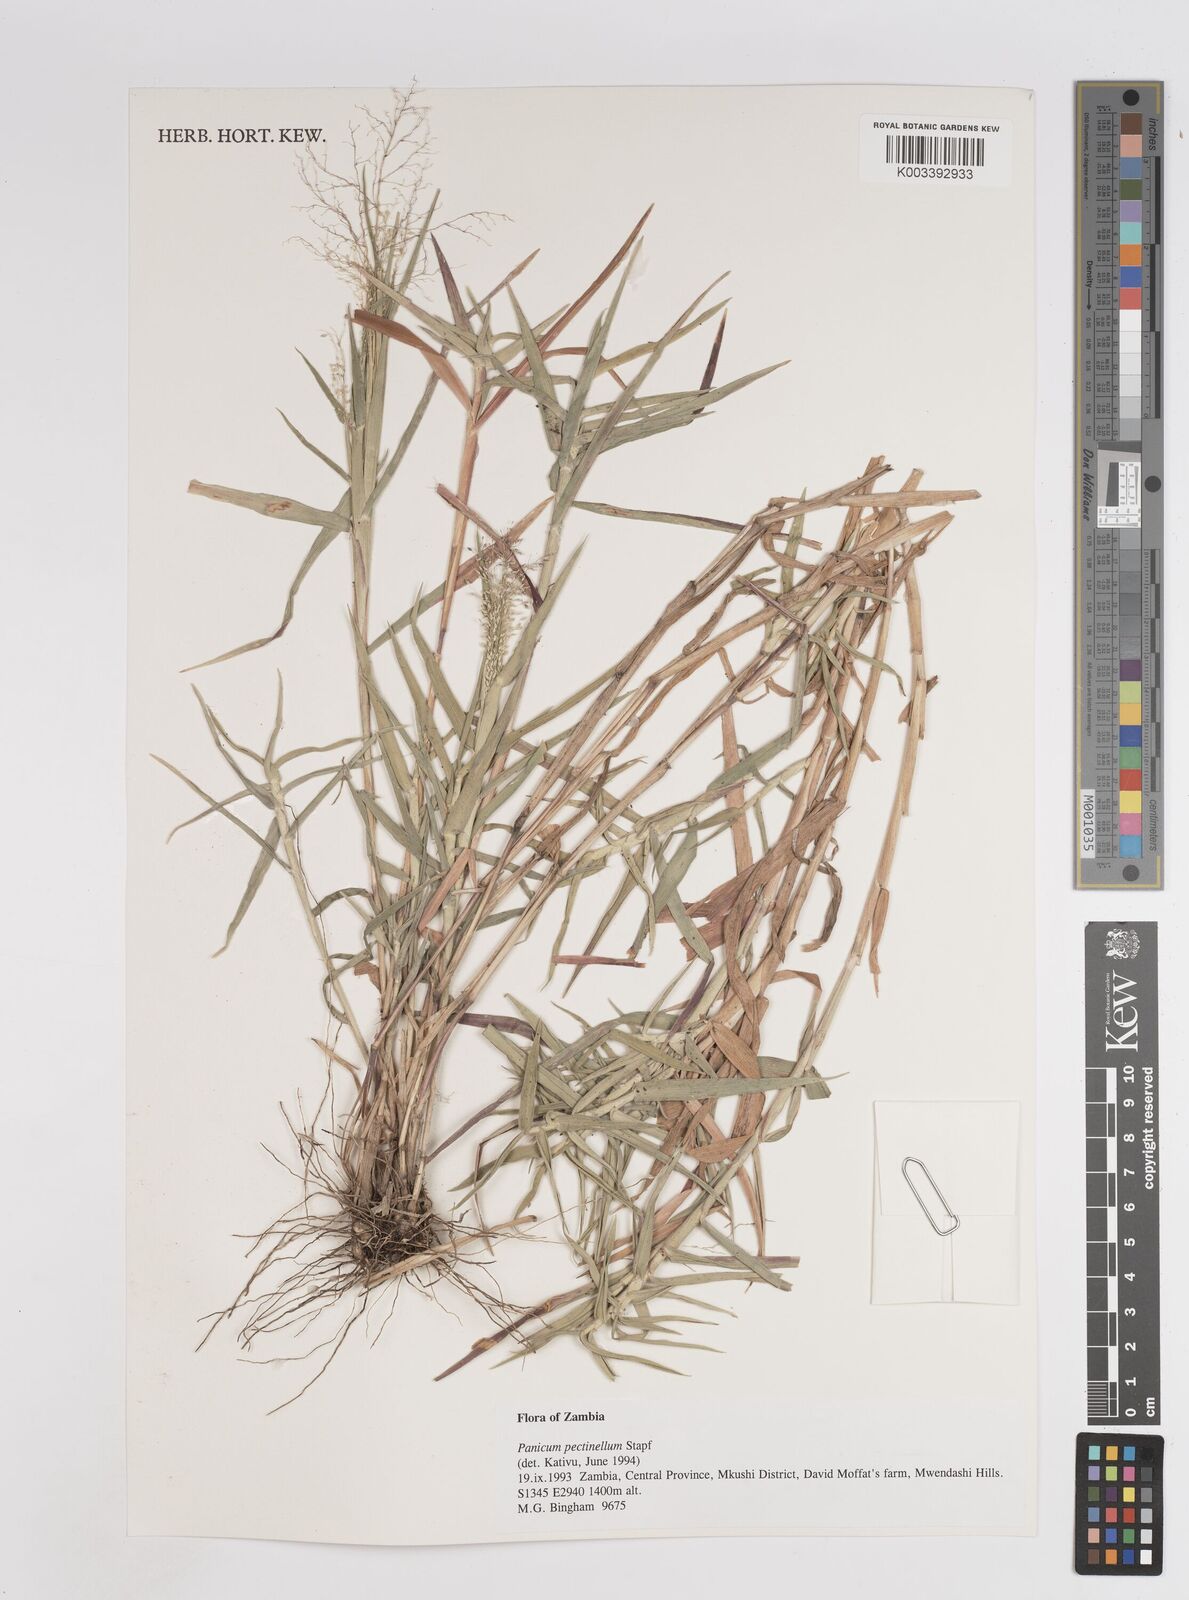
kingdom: Plantae
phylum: Tracheophyta
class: Liliopsida
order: Poales
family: Poaceae
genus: Adenochloa
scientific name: Adenochloa pectinella
